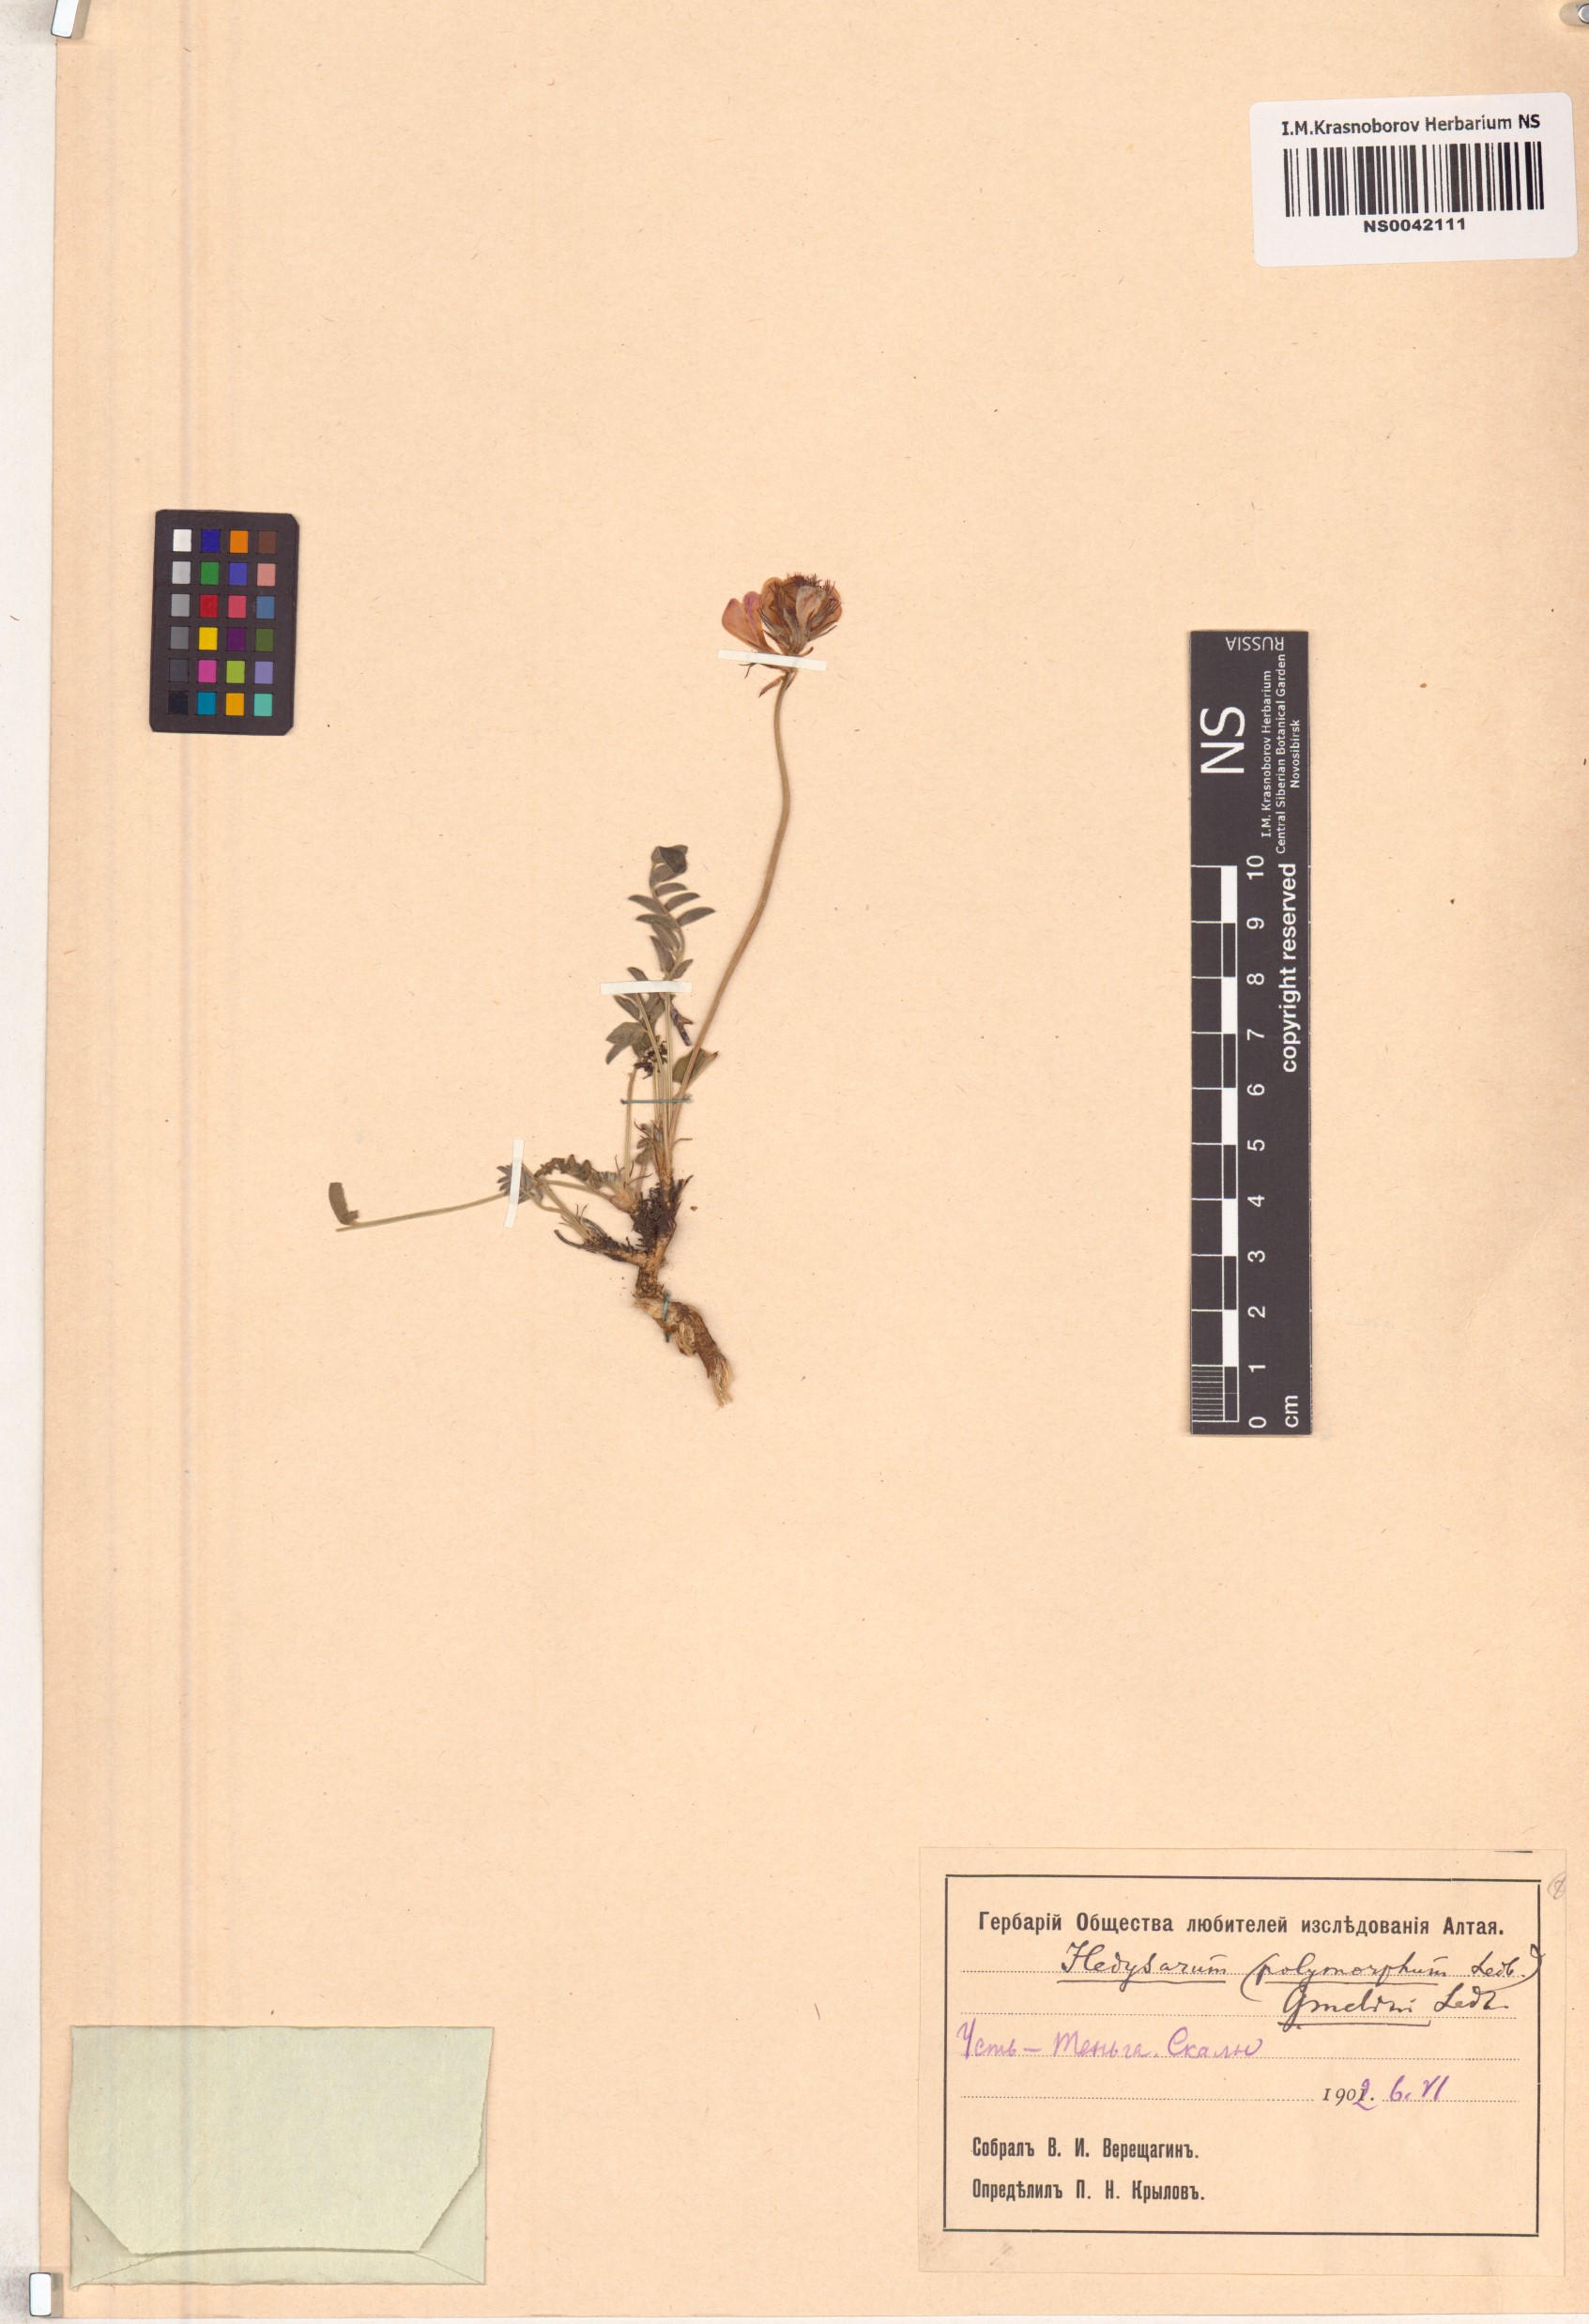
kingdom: Plantae
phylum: Tracheophyta
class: Magnoliopsida
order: Fabales
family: Fabaceae
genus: Hedysarum
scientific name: Hedysarum gmelinii
